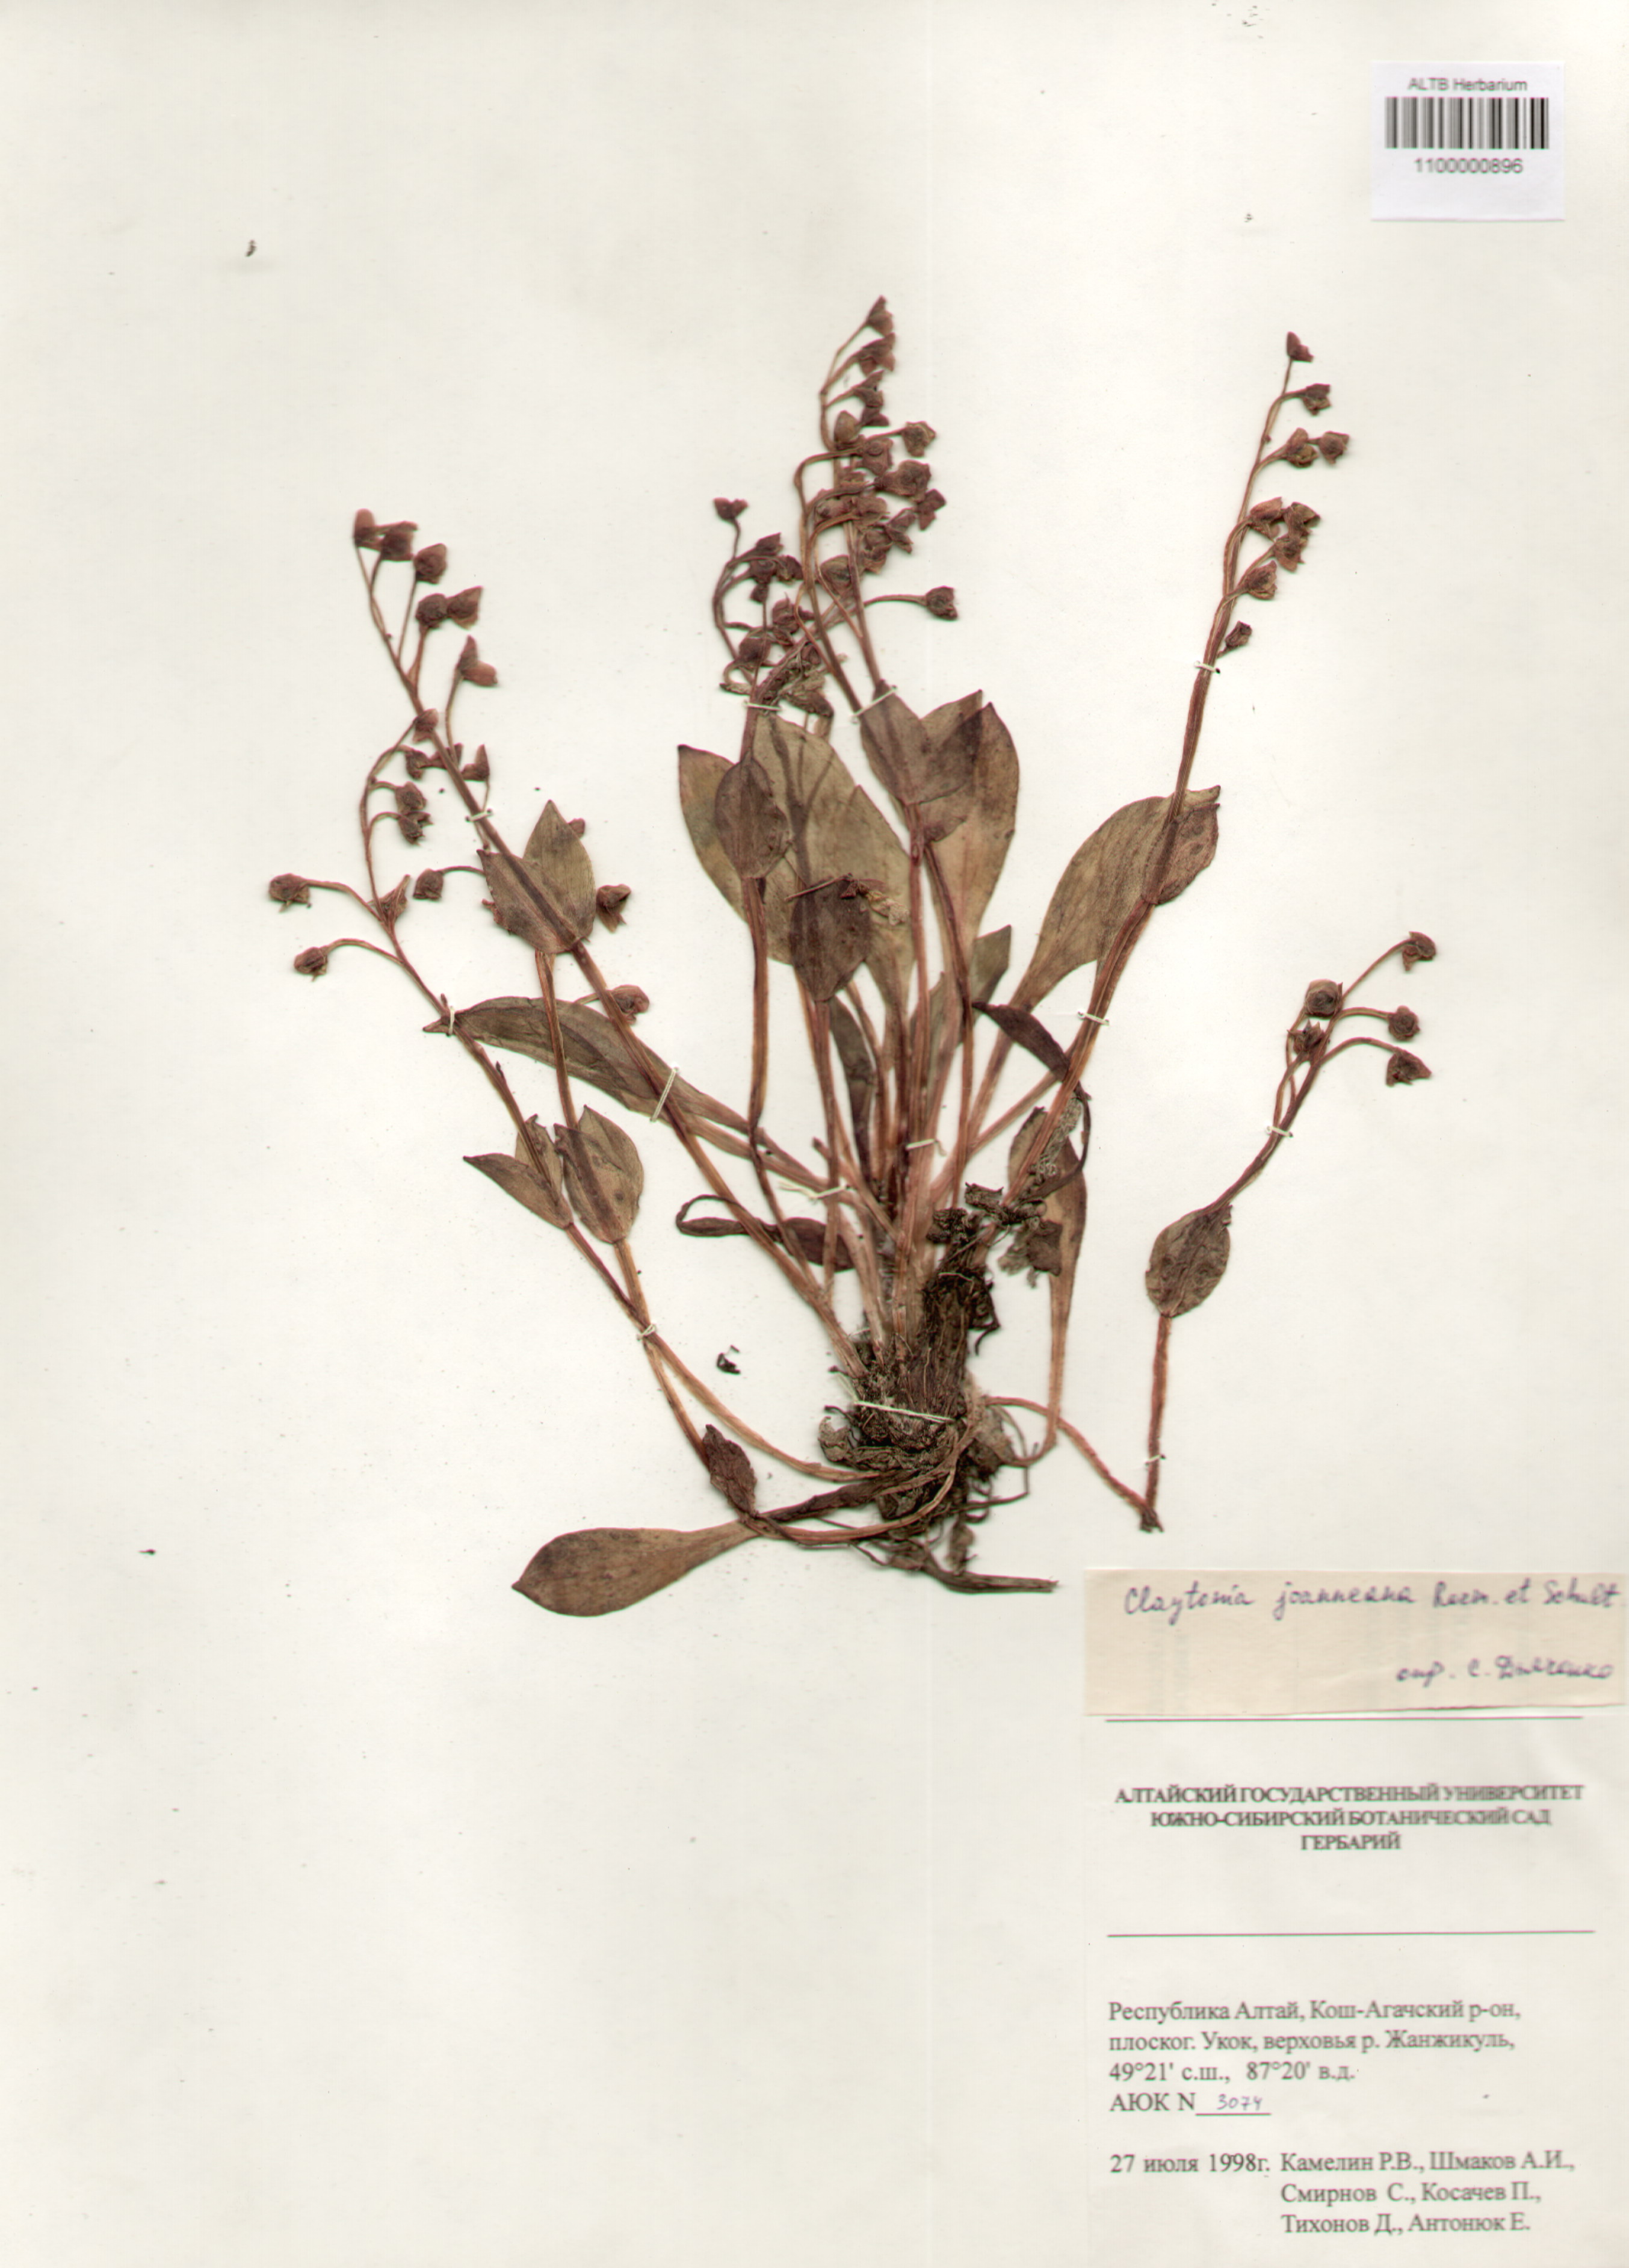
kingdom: Plantae
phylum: Tracheophyta
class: Magnoliopsida
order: Caryophyllales
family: Montiaceae
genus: Claytonia
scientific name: Claytonia joanneana
